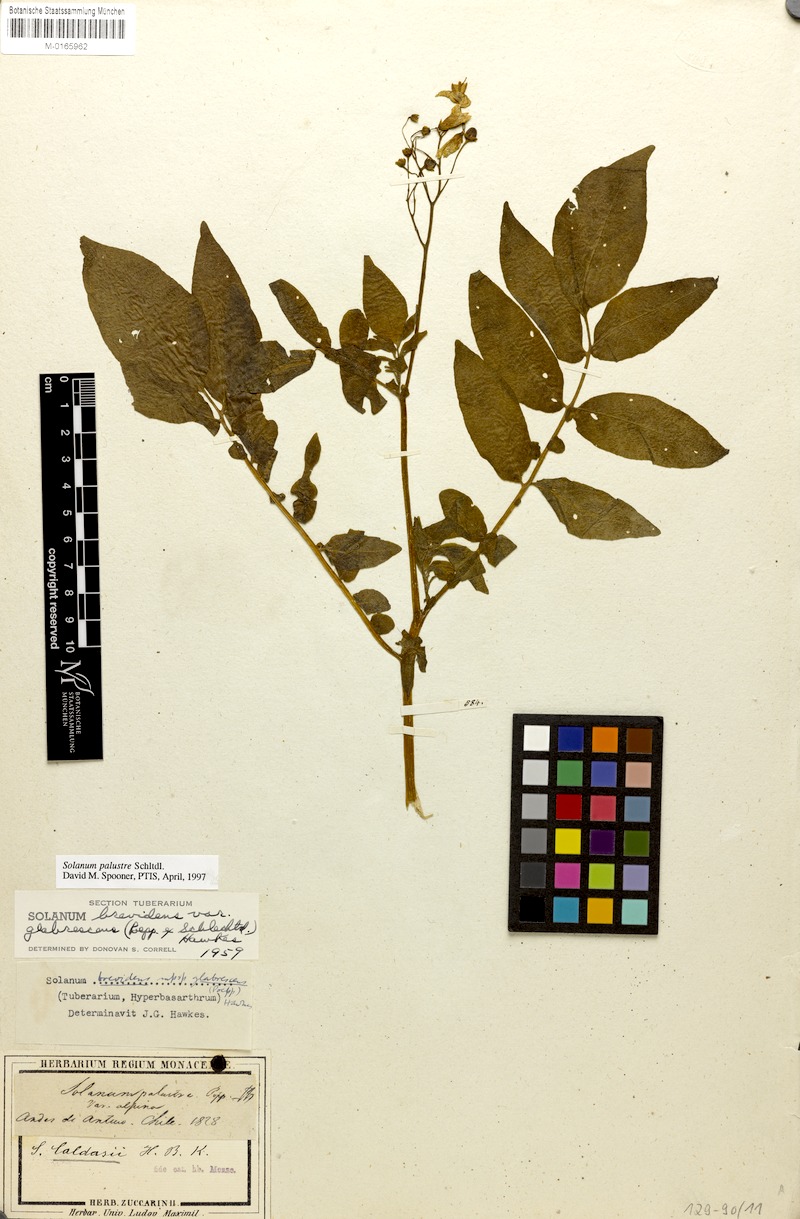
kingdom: Plantae
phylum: Tracheophyta
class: Magnoliopsida
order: Solanales
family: Solanaceae
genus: Solanum
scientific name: Solanum palustre
